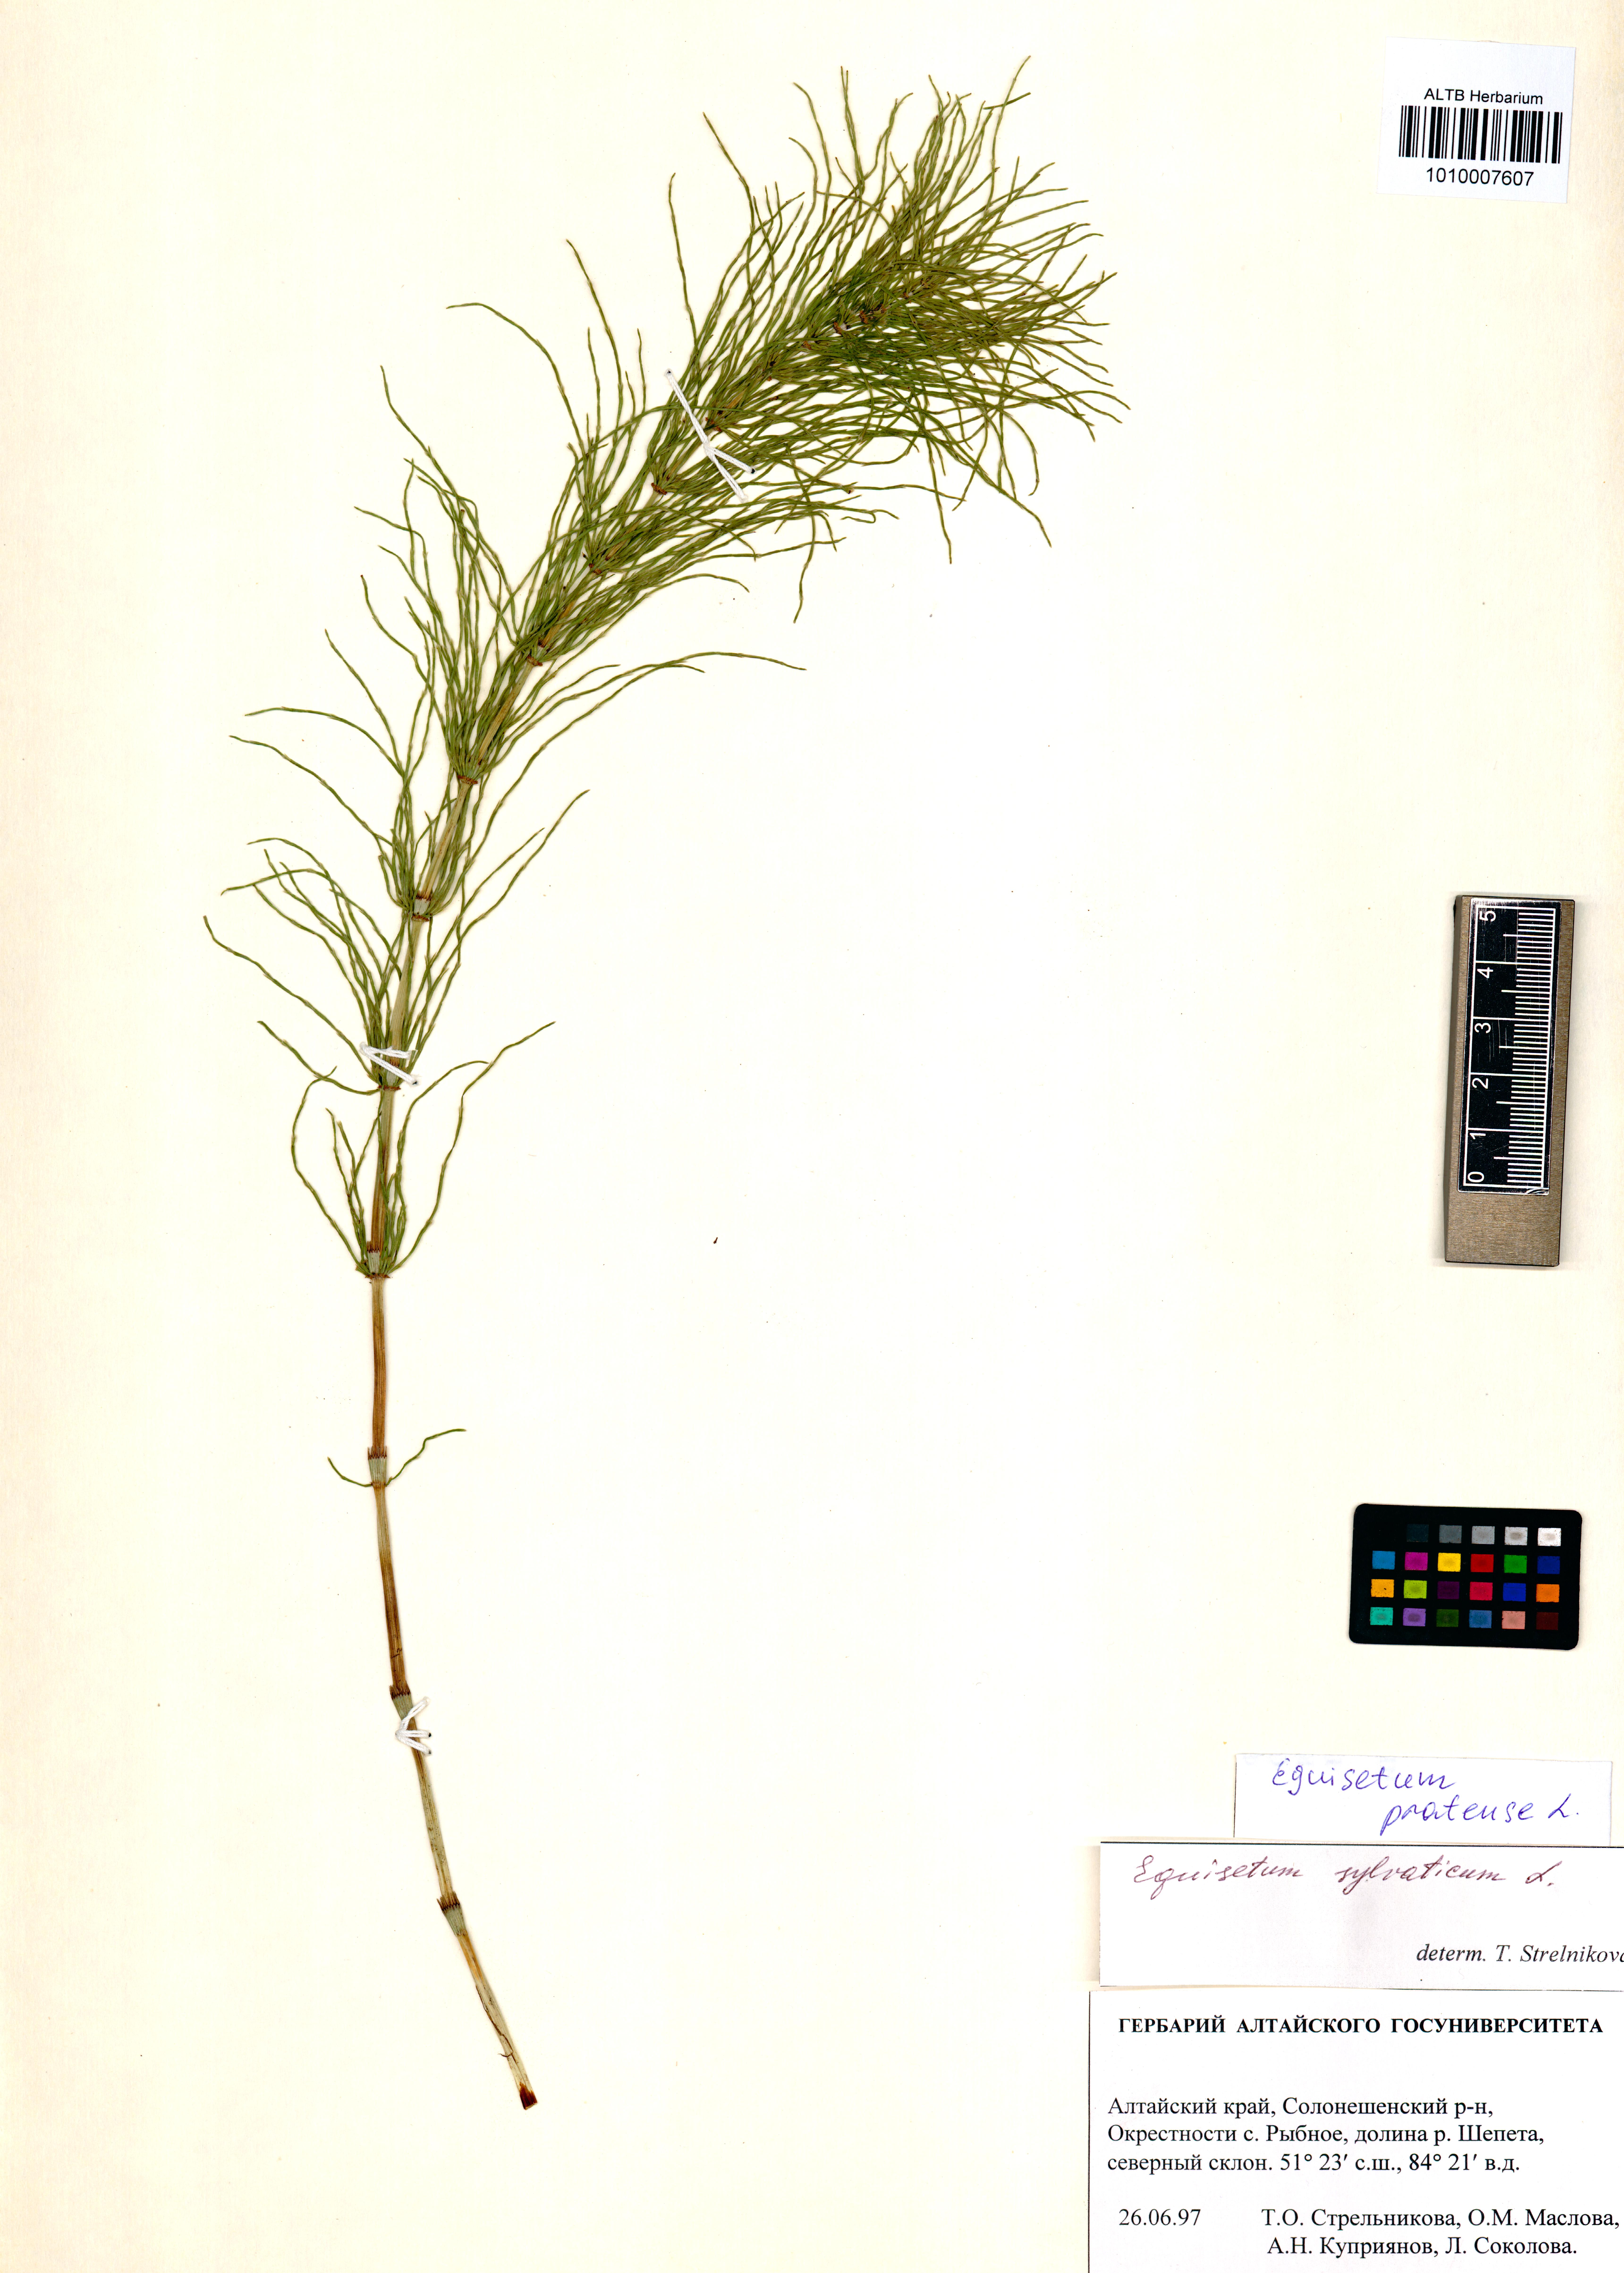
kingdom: Plantae
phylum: Tracheophyta
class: Polypodiopsida
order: Equisetales
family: Equisetaceae
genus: Equisetum
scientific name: Equisetum pratense
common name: Meadow horsetail
